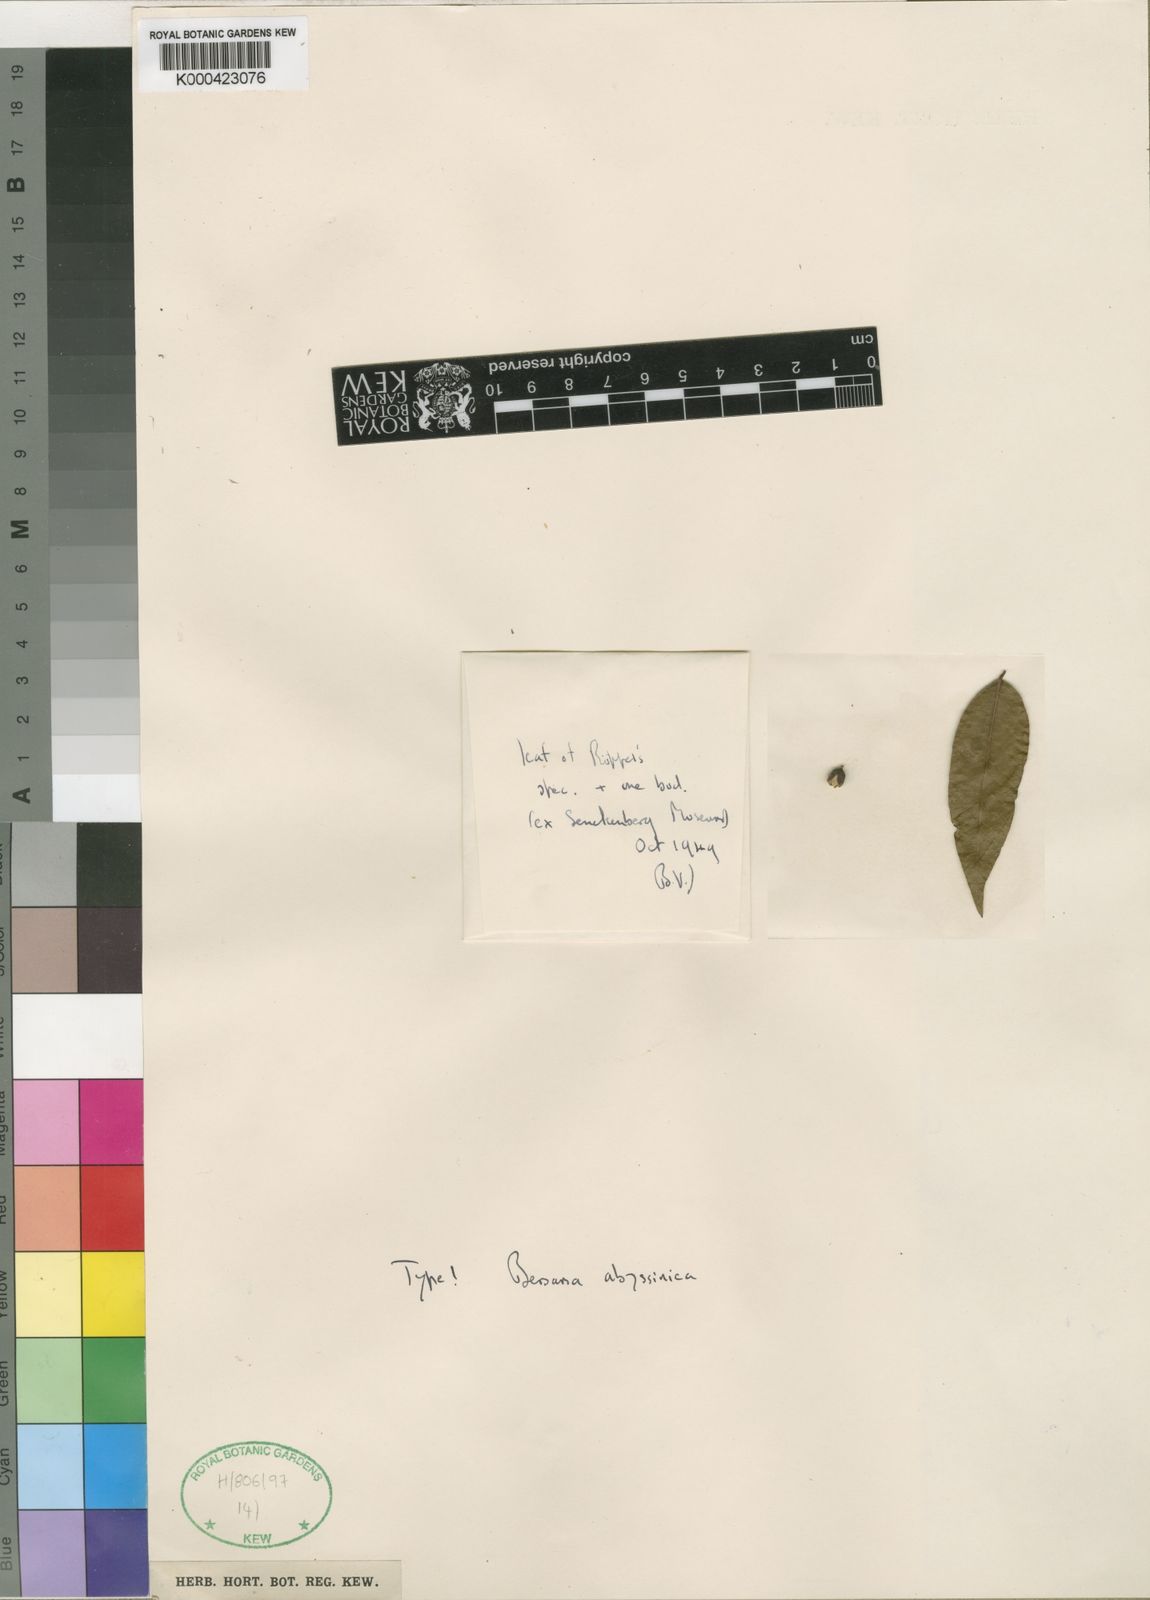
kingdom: Plantae
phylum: Tracheophyta
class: Magnoliopsida
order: Geraniales
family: Melianthaceae
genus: Bersama
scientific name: Bersama abyssinica
